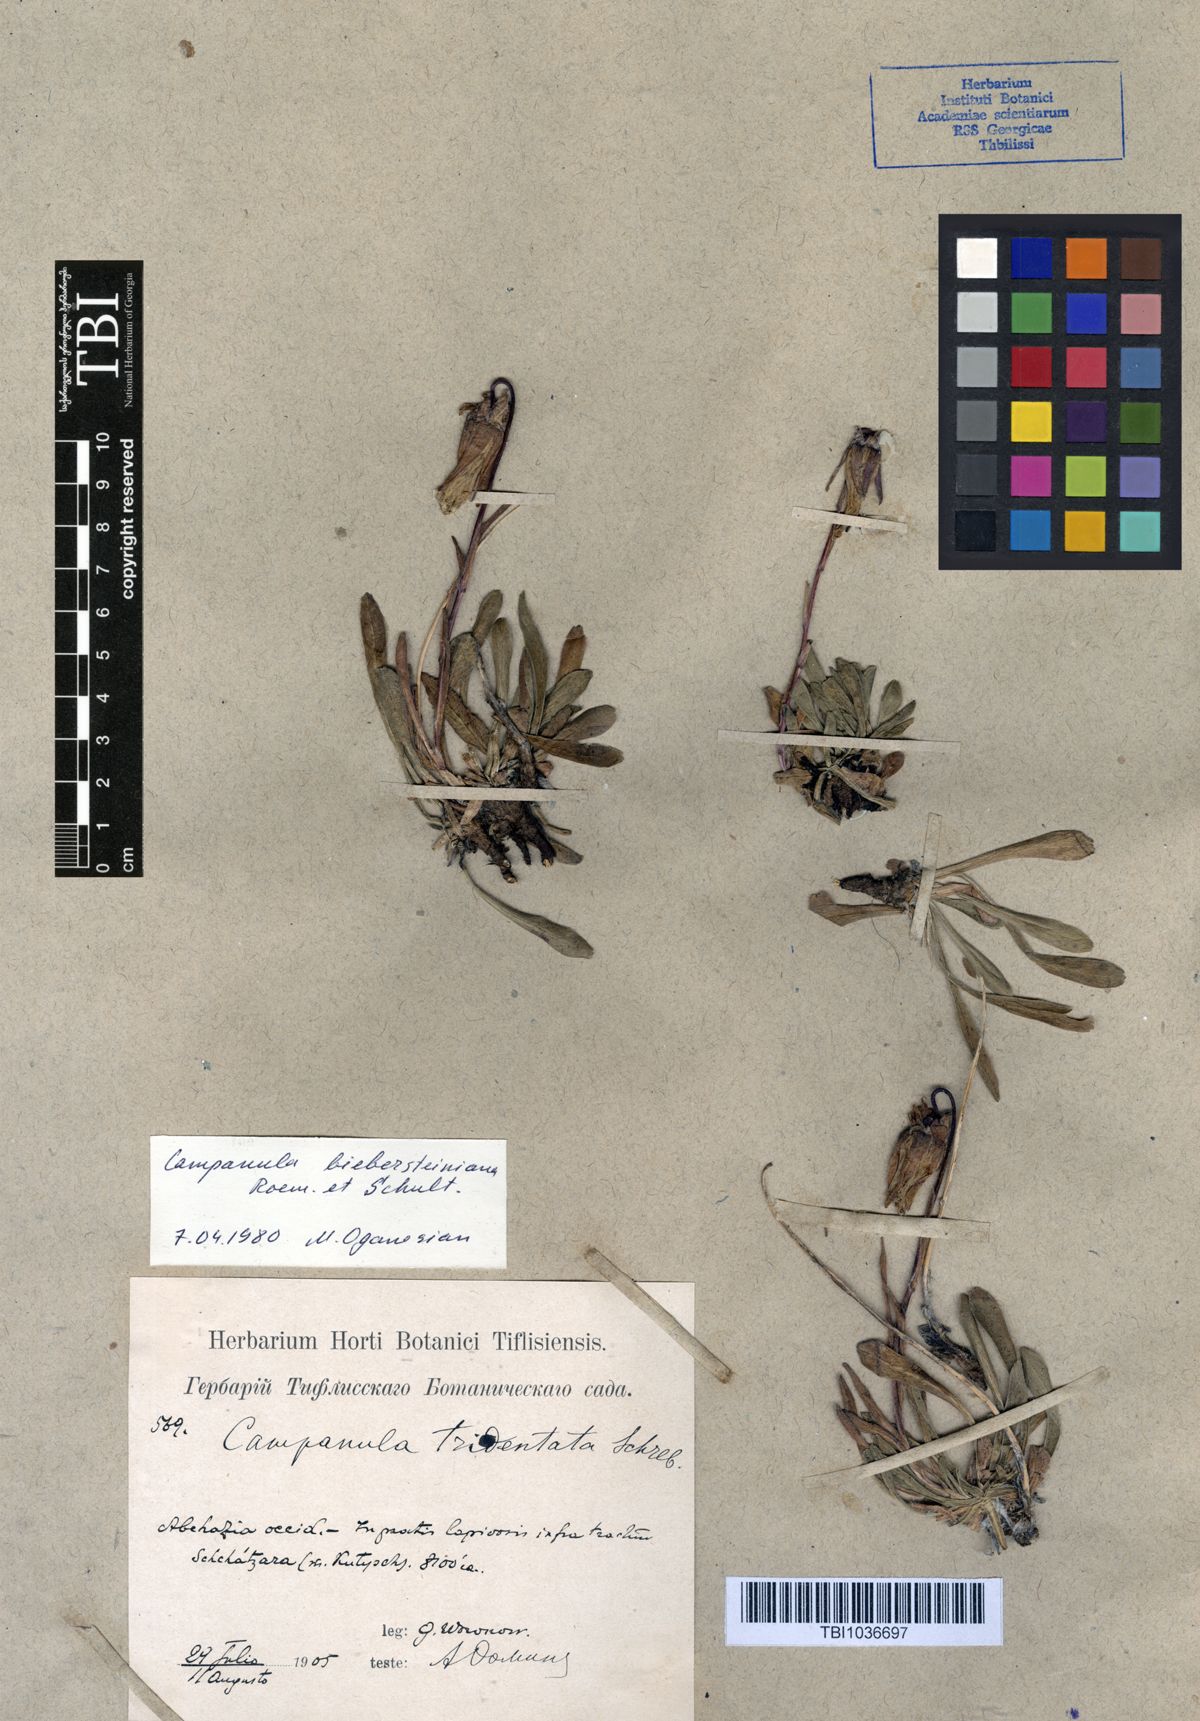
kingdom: Plantae
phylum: Tracheophyta
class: Magnoliopsida
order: Asterales
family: Campanulaceae
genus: Campanula
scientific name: Campanula tridentata
